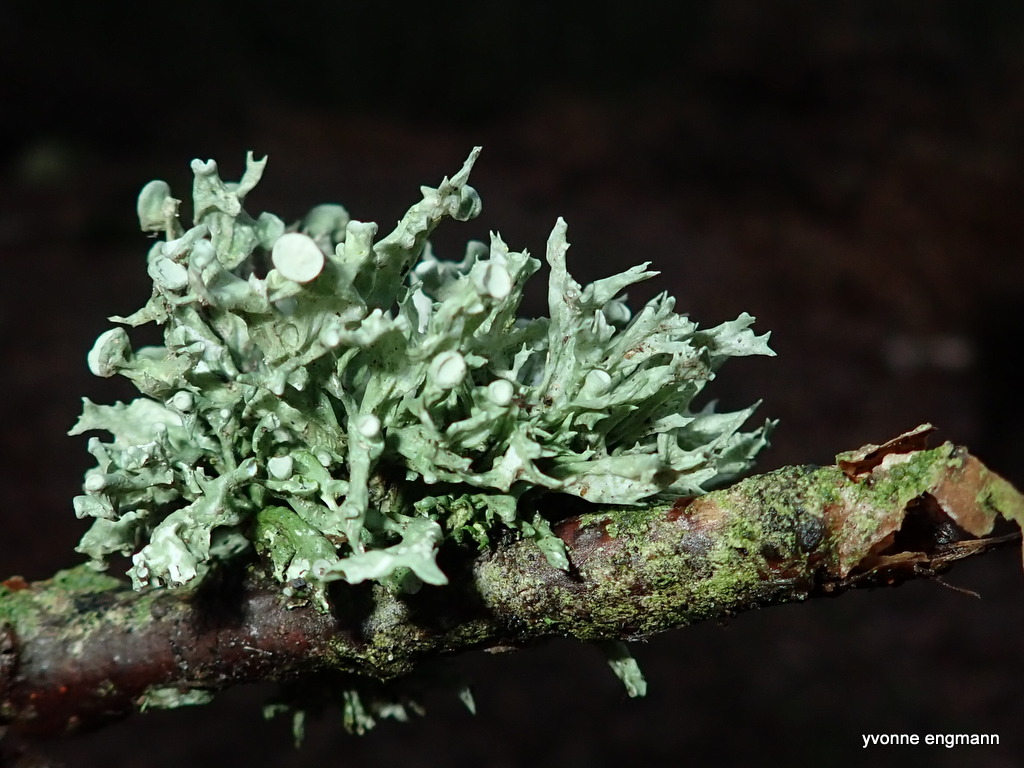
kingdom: Fungi
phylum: Ascomycota
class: Lecanoromycetes
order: Lecanorales
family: Ramalinaceae
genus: Ramalina
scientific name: Ramalina fastigiata
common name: tue-grenlav
